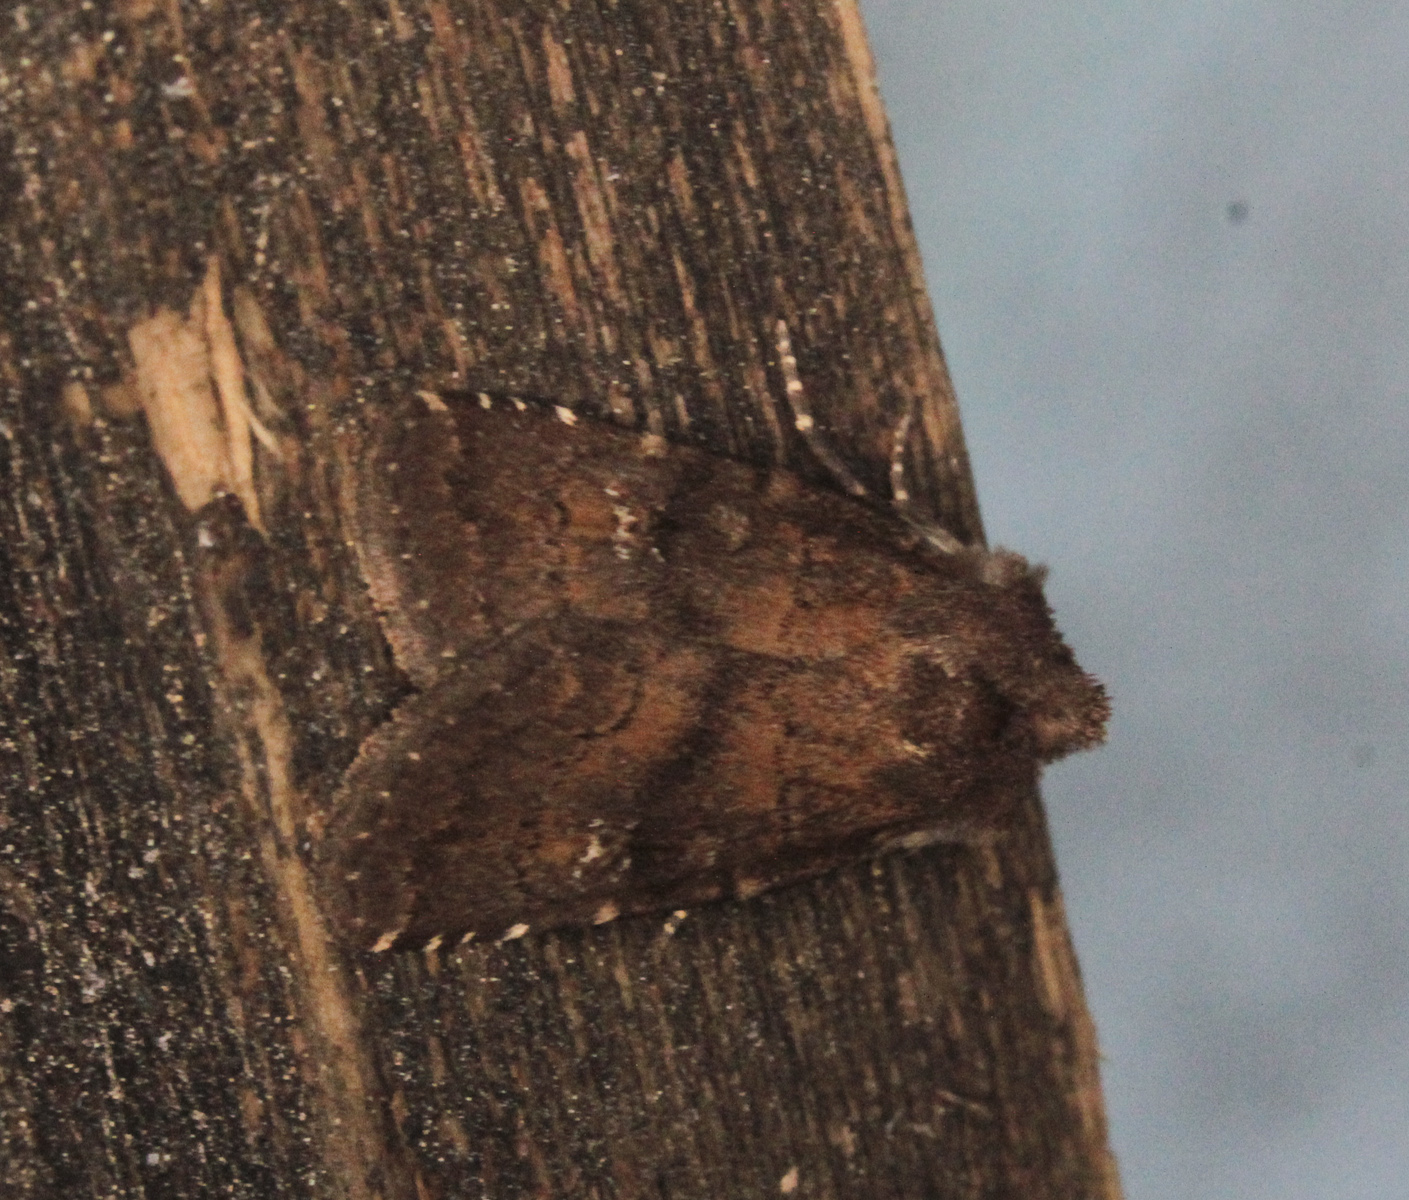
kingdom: Animalia
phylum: Arthropoda
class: Insecta
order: Lepidoptera
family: Noctuidae
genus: Charanyca
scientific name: Charanyca ferruginea
